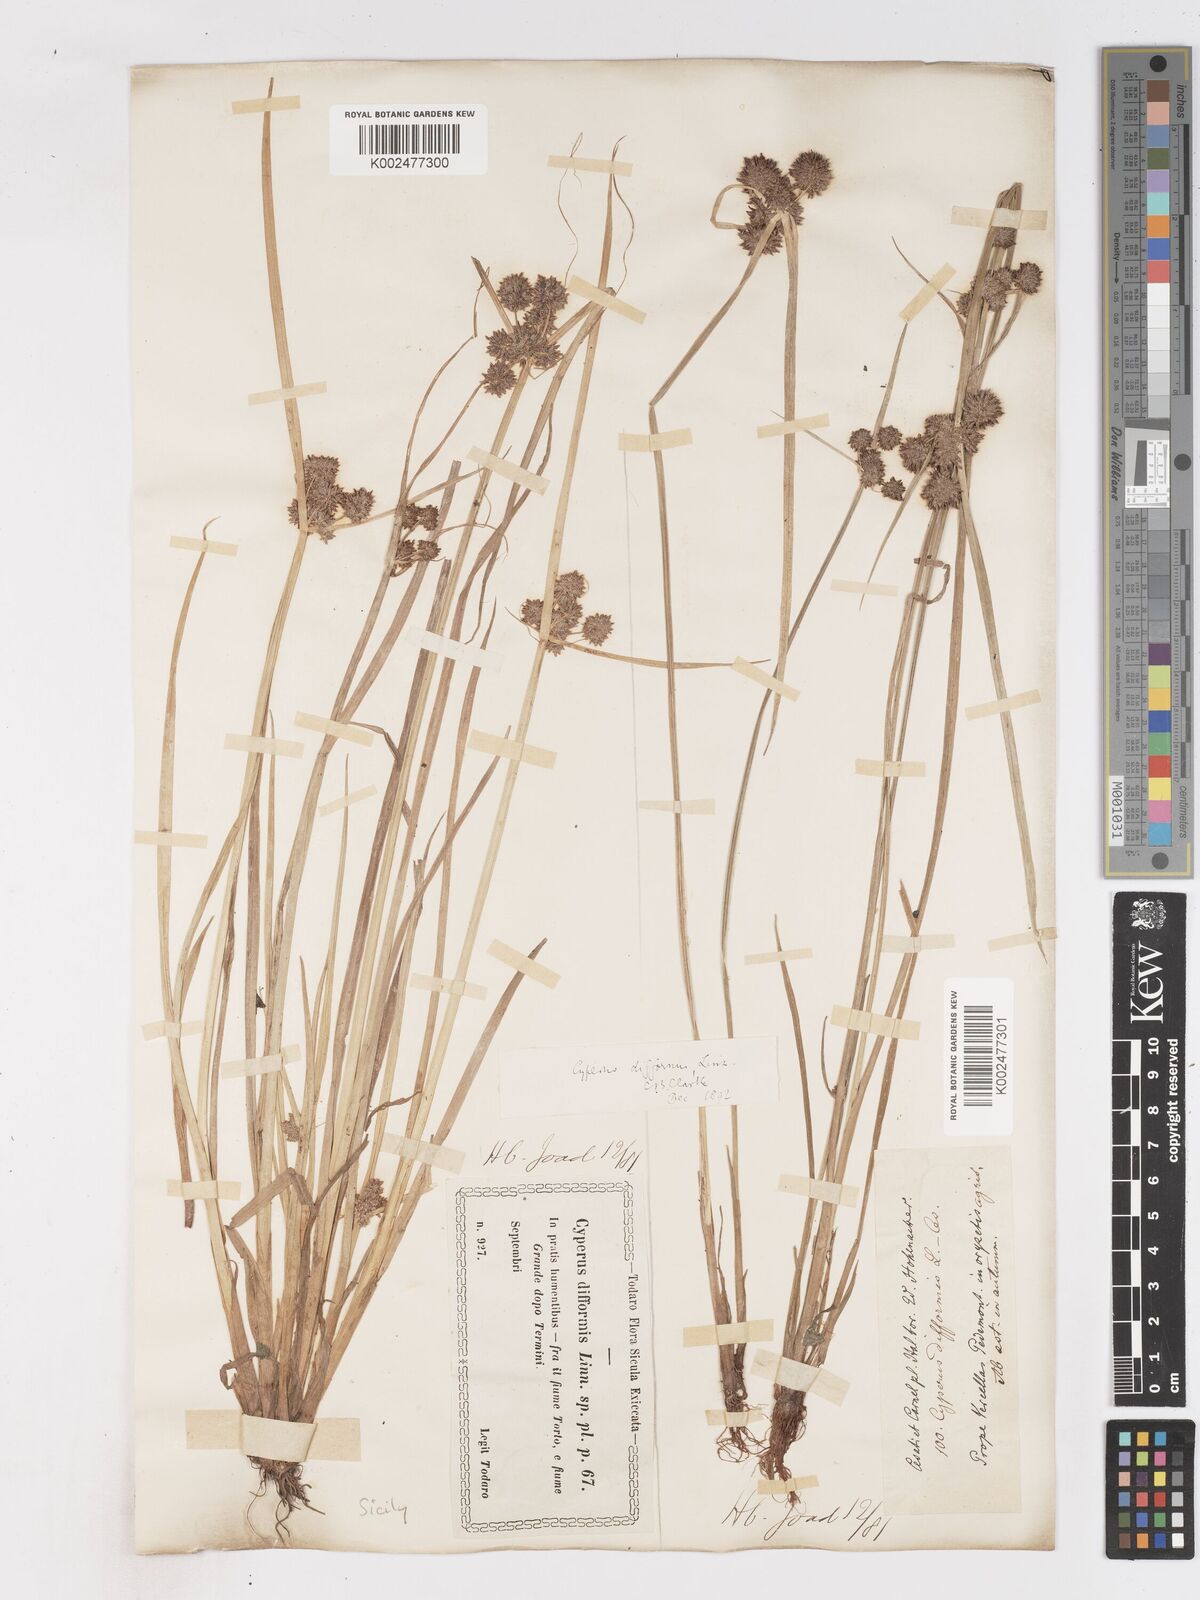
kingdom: Plantae
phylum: Tracheophyta
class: Liliopsida
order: Poales
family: Cyperaceae
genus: Cyperus
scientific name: Cyperus difformis
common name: Variable flatsedge
